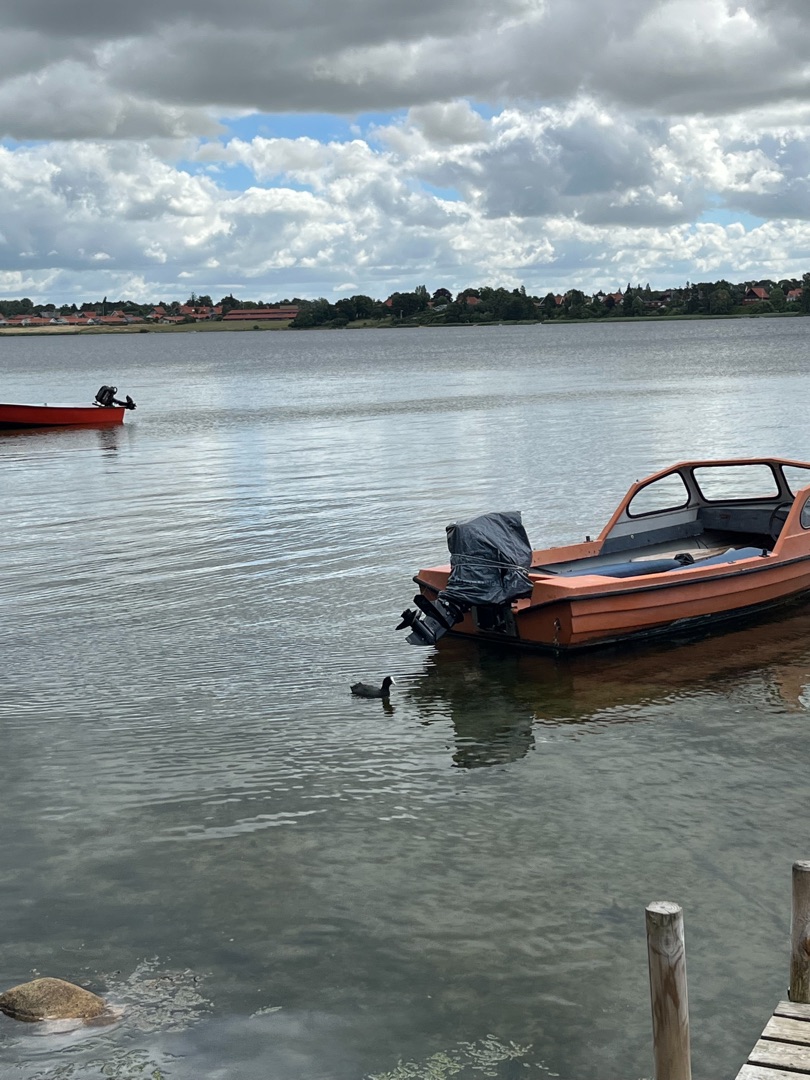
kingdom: Animalia
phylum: Chordata
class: Aves
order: Gruiformes
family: Rallidae
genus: Fulica
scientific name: Fulica atra
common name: Blishøne
